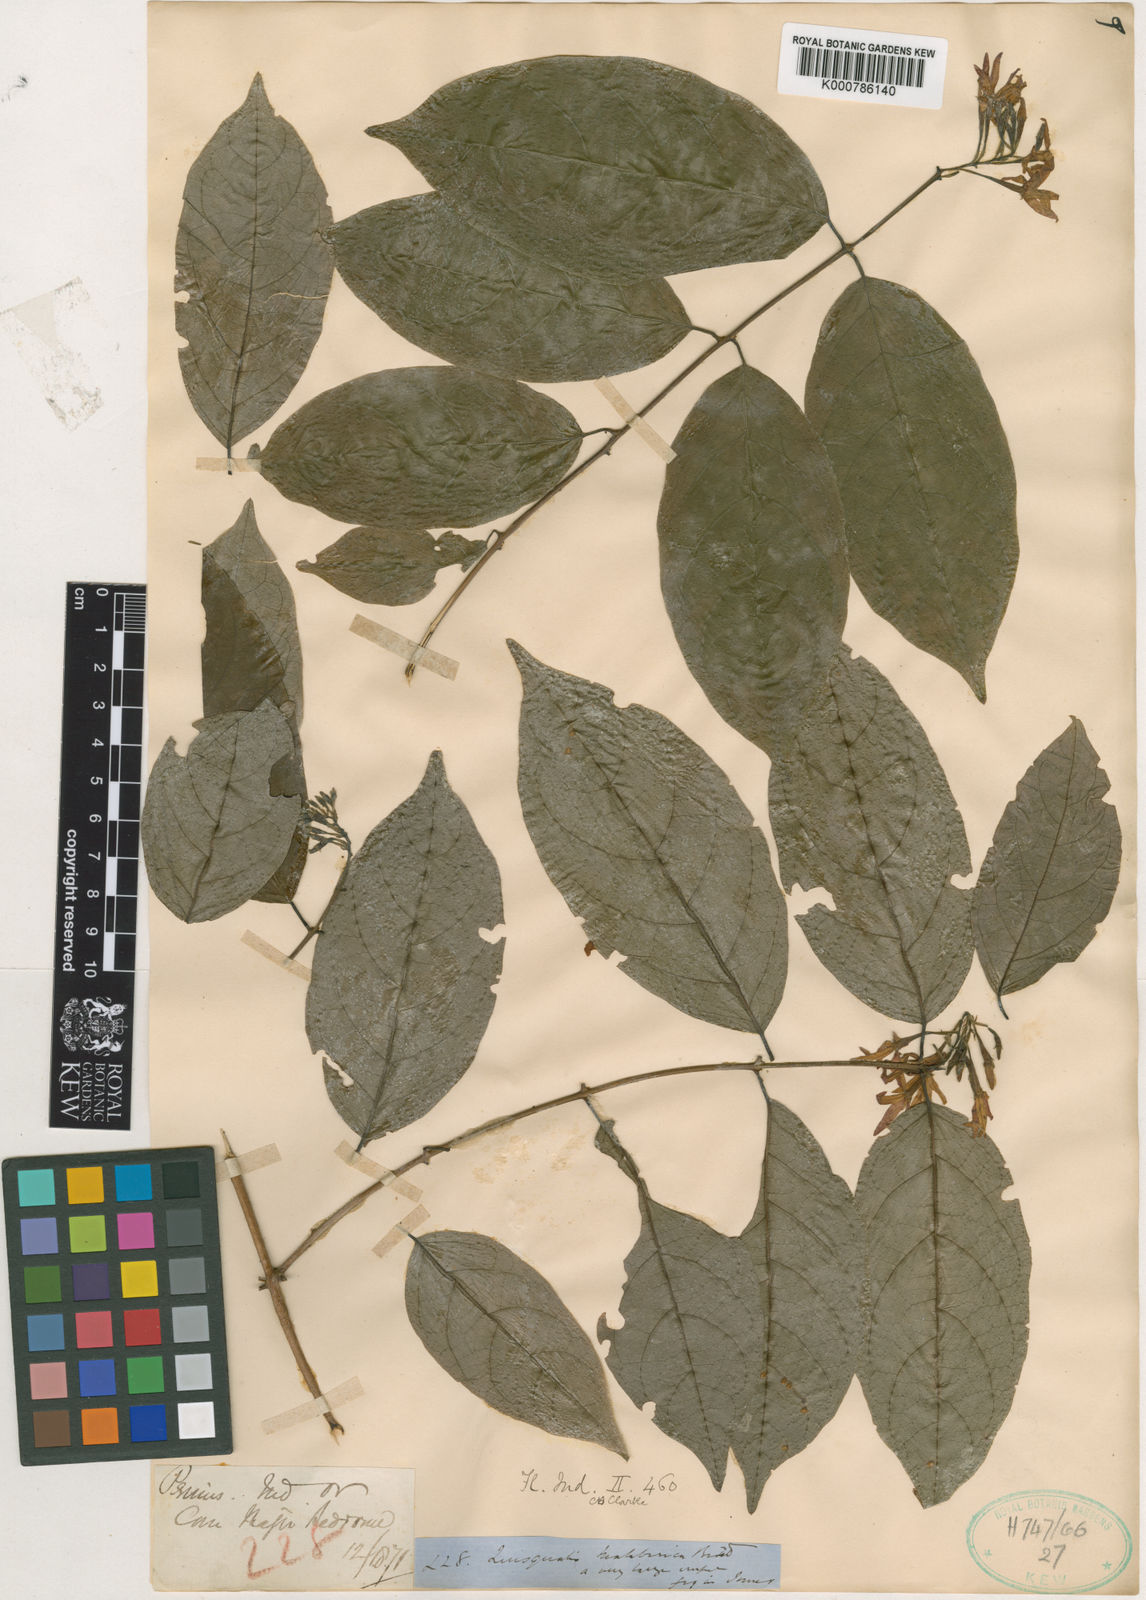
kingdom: Plantae
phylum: Tracheophyta
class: Magnoliopsida
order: Myrtales
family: Combretaceae
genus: Combretum
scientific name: Combretum malabaricum
